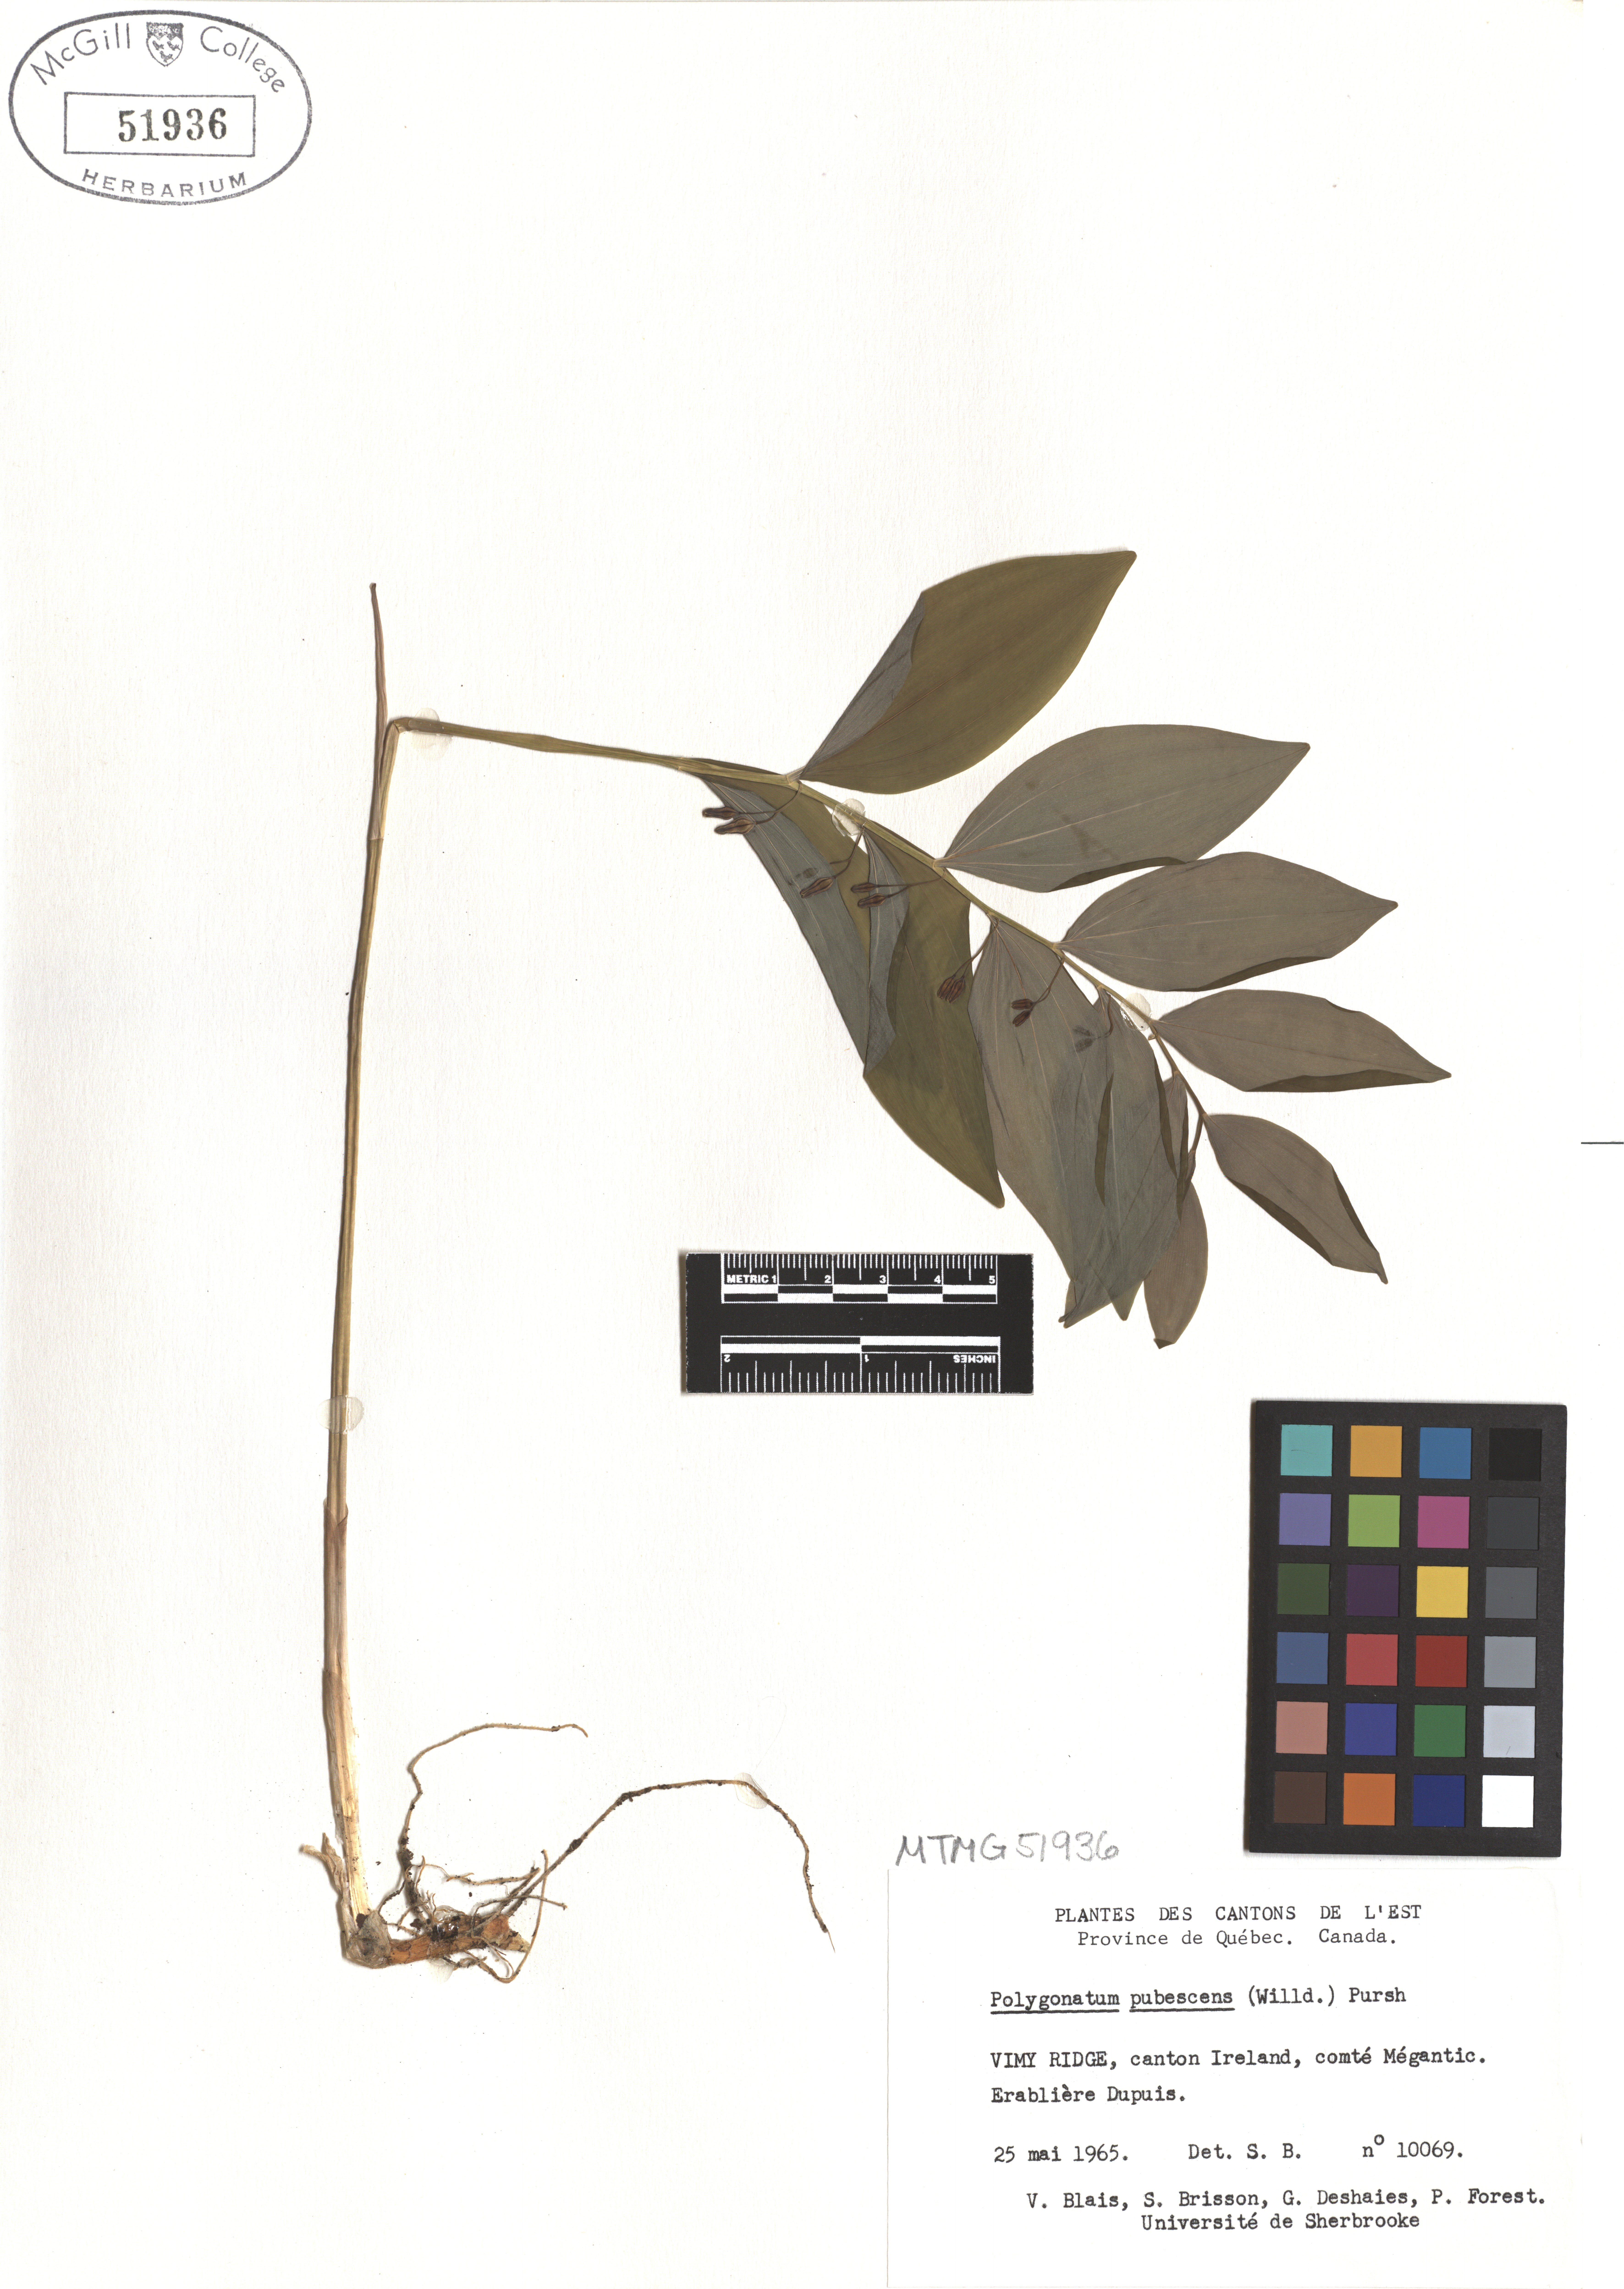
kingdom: Plantae
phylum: Tracheophyta
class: Liliopsida
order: Asparagales
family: Asparagaceae
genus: Polygonatum
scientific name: Polygonatum pubescens
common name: Downy solomon's seal
